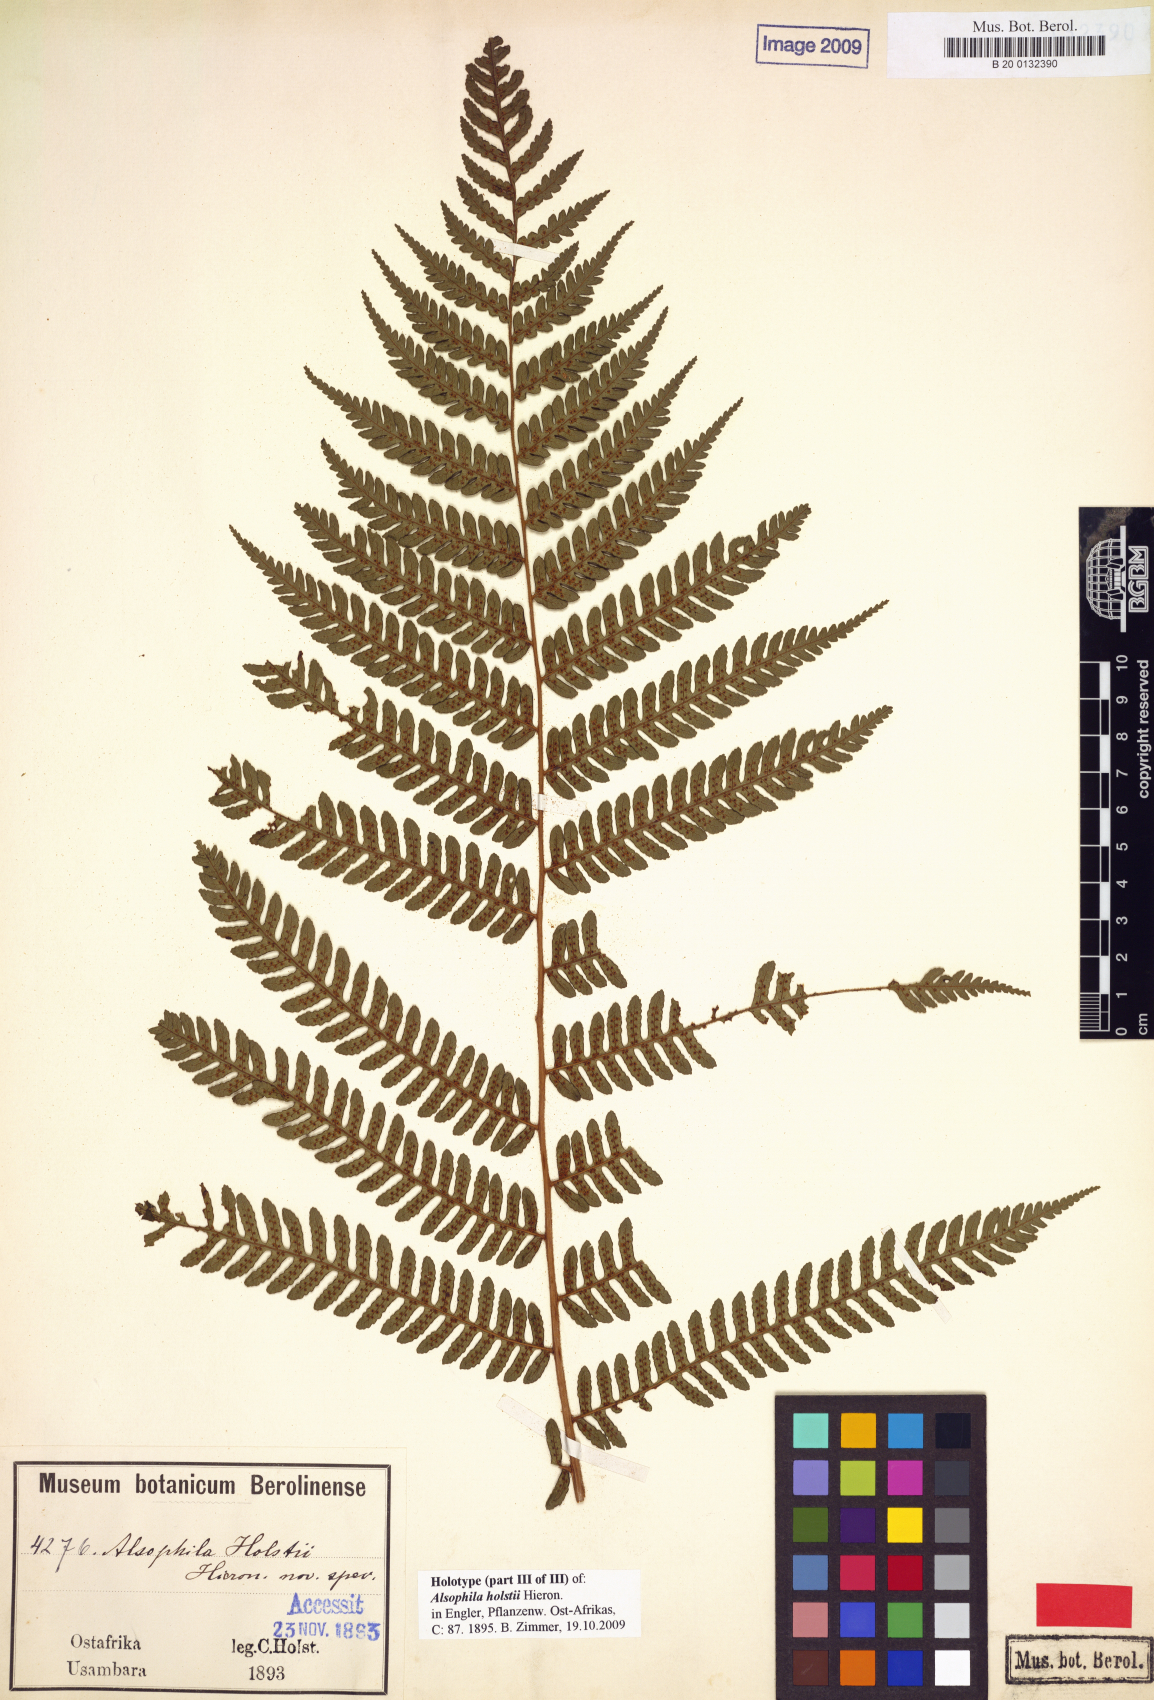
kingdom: Plantae
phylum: Tracheophyta
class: Polypodiopsida
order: Cyatheales
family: Cyatheaceae
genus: Alsophila
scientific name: Alsophila humilis
